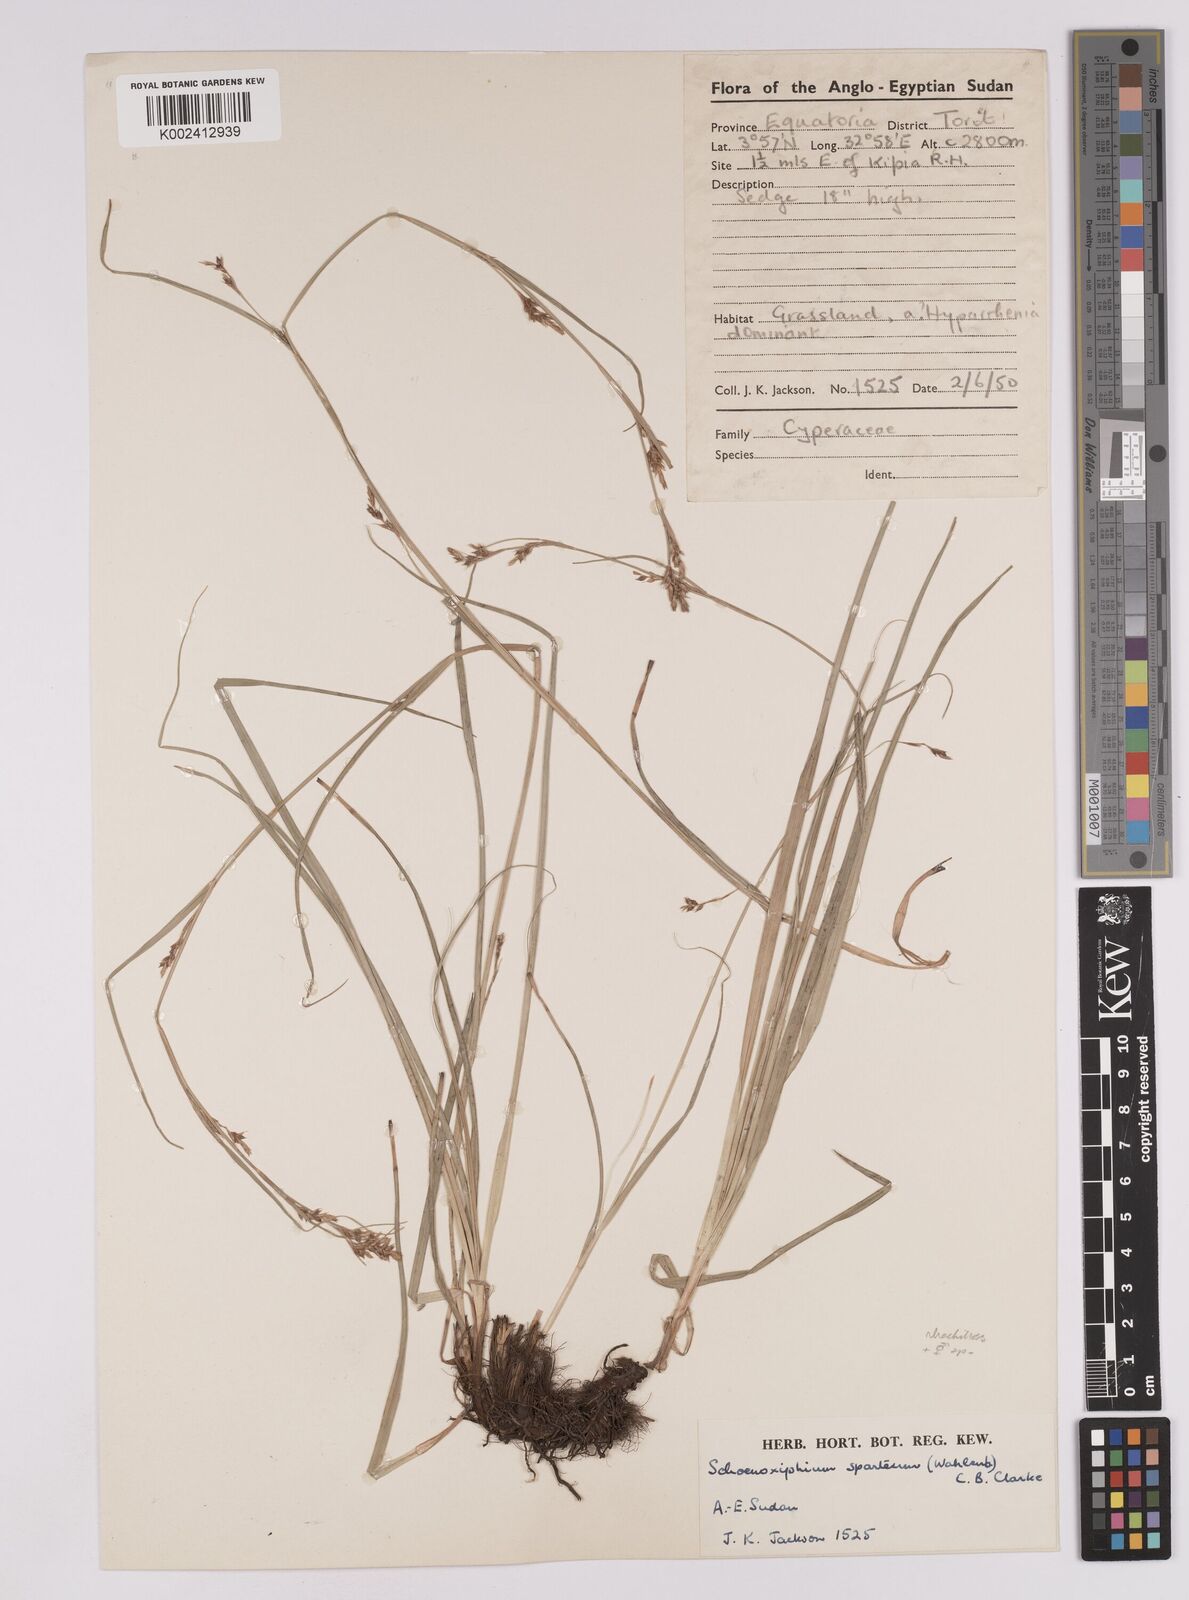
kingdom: Plantae
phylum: Tracheophyta
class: Liliopsida
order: Poales
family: Cyperaceae
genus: Carex
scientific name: Carex spartea
